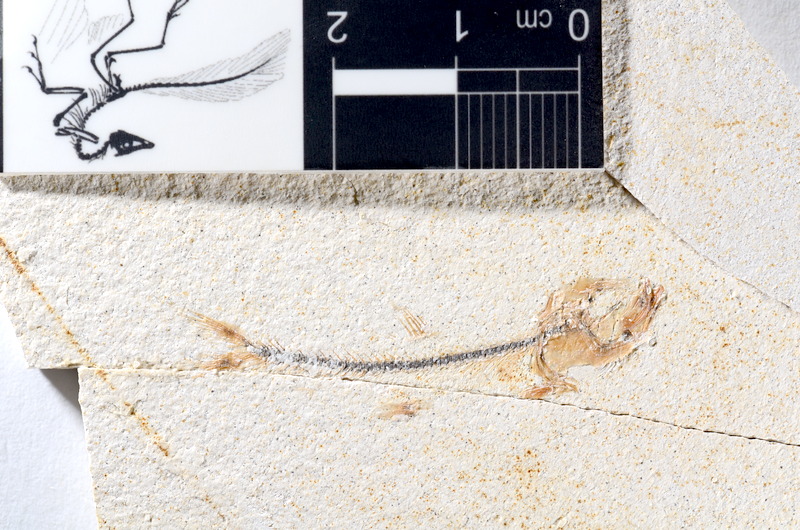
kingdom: Animalia
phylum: Chordata
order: Salmoniformes
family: Orthogonikleithridae
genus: Orthogonikleithrus
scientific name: Orthogonikleithrus hoelli
